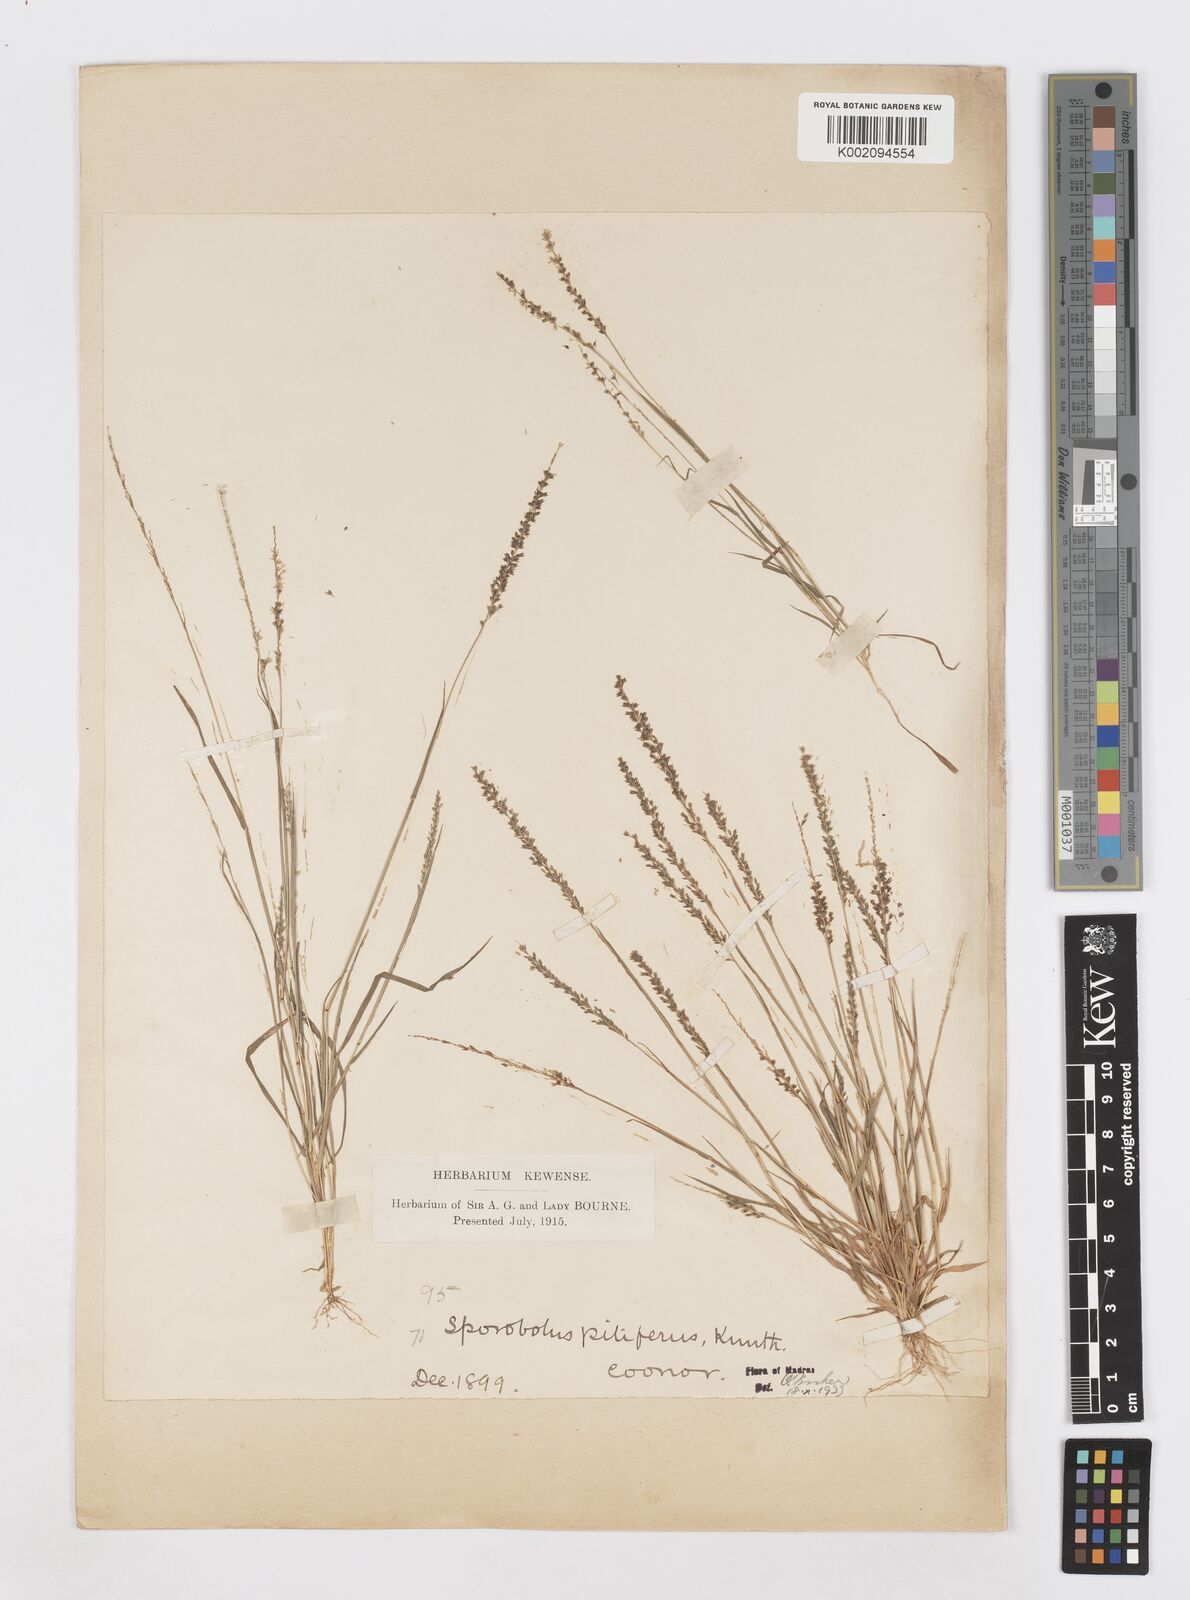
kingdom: Plantae
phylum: Tracheophyta
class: Liliopsida
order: Poales
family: Poaceae
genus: Sporobolus
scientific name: Sporobolus pilifer
